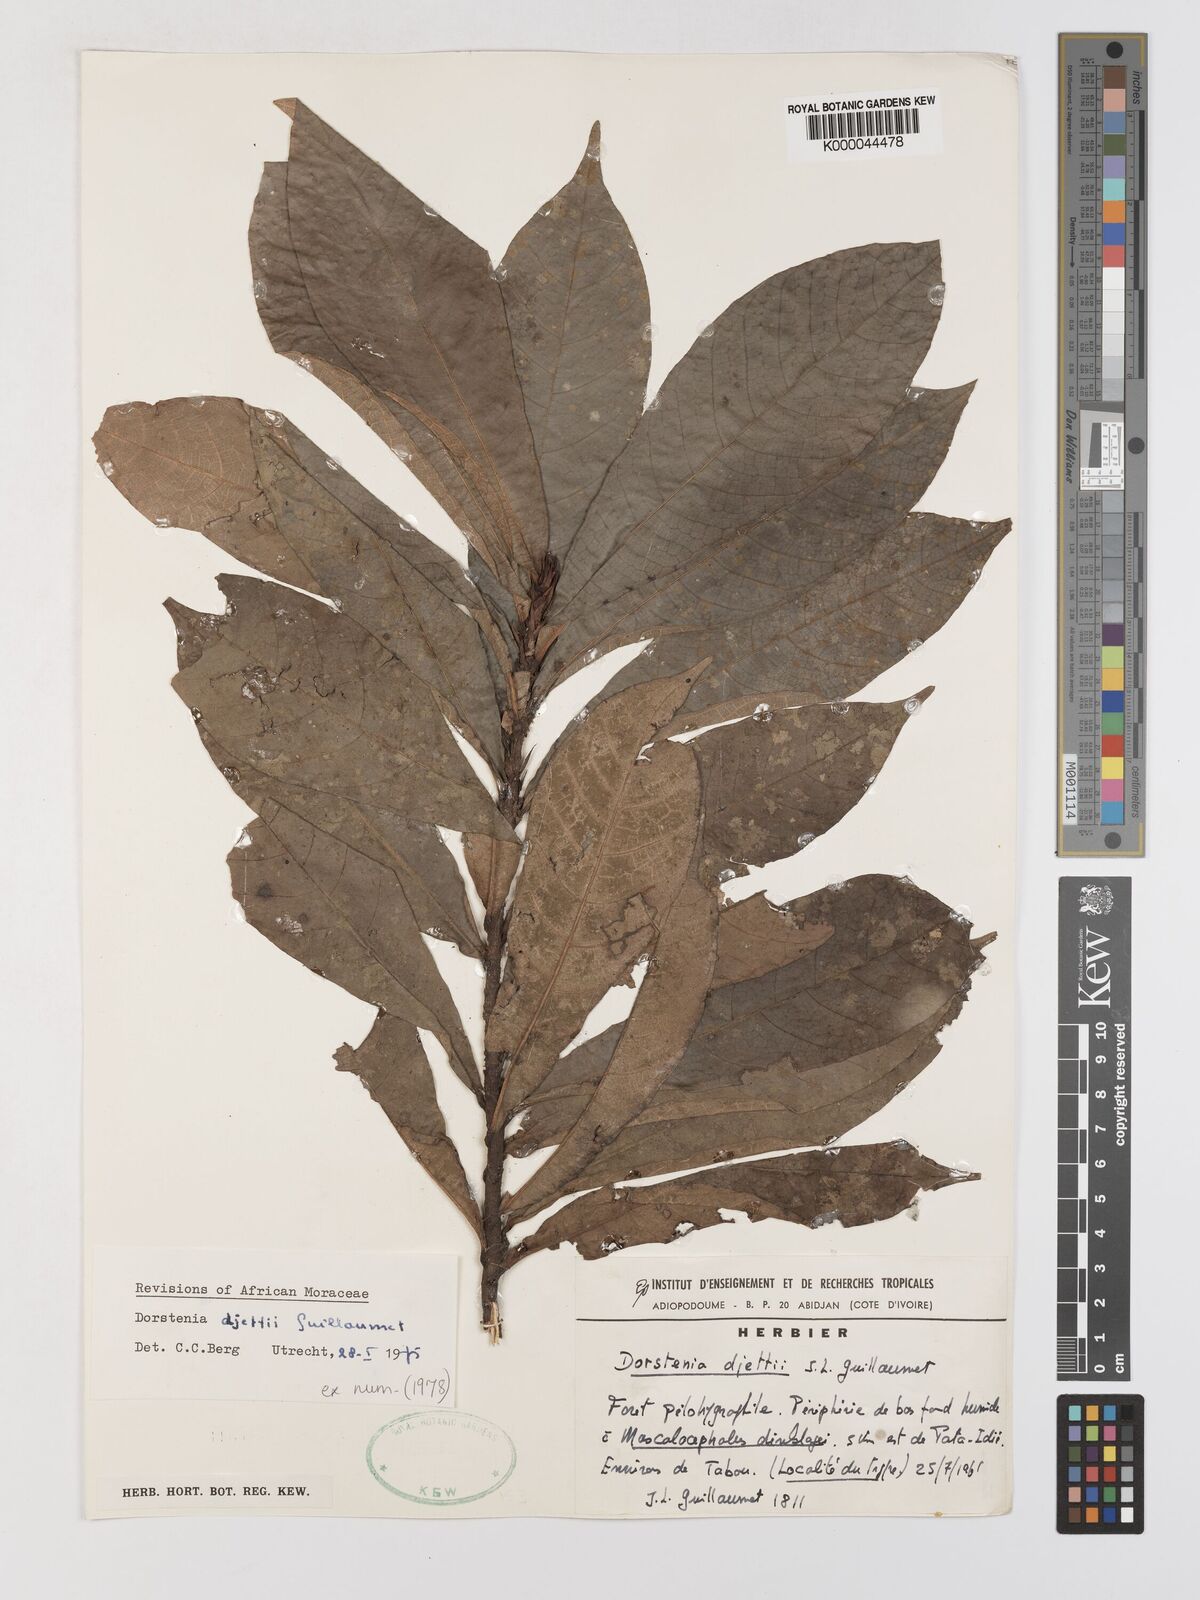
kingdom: Plantae
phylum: Tracheophyta
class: Magnoliopsida
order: Rosales
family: Moraceae
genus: Dorstenia
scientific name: Dorstenia djettii
